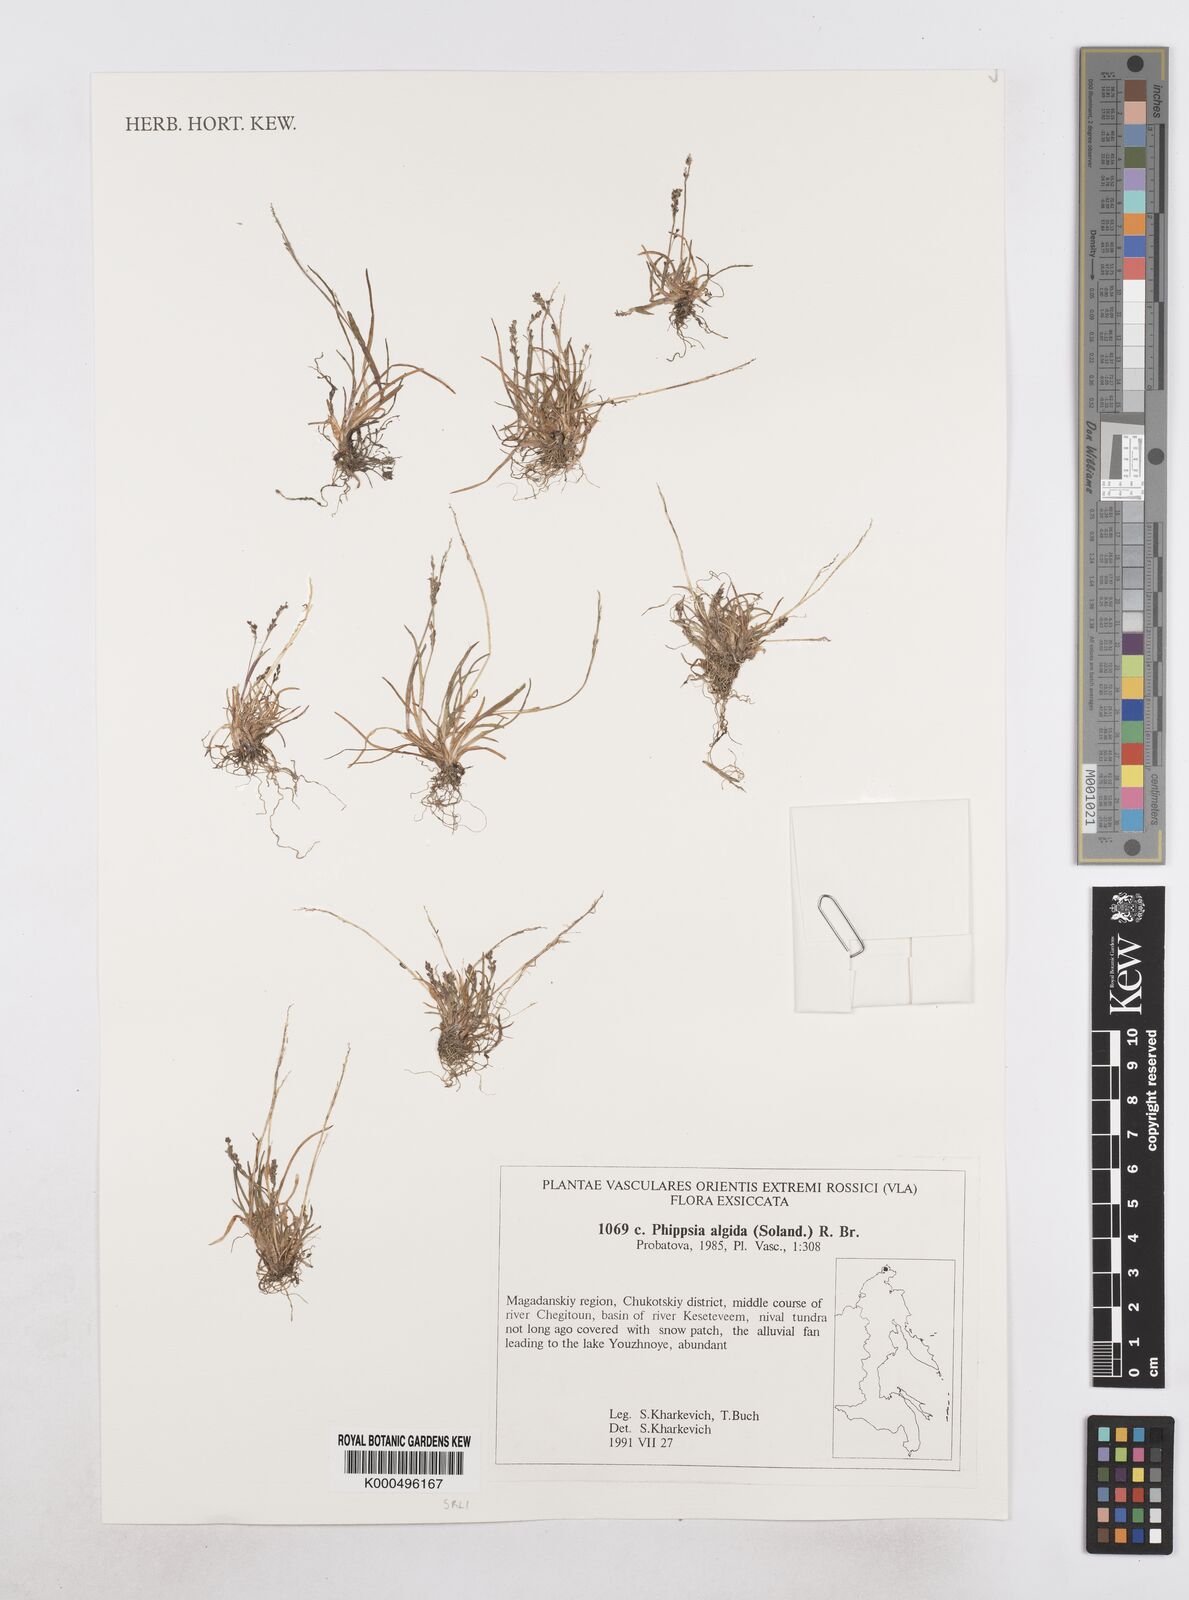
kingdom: Plantae
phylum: Tracheophyta
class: Liliopsida
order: Poales
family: Poaceae
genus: Phippsia
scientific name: Phippsia algida
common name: Ice grass
